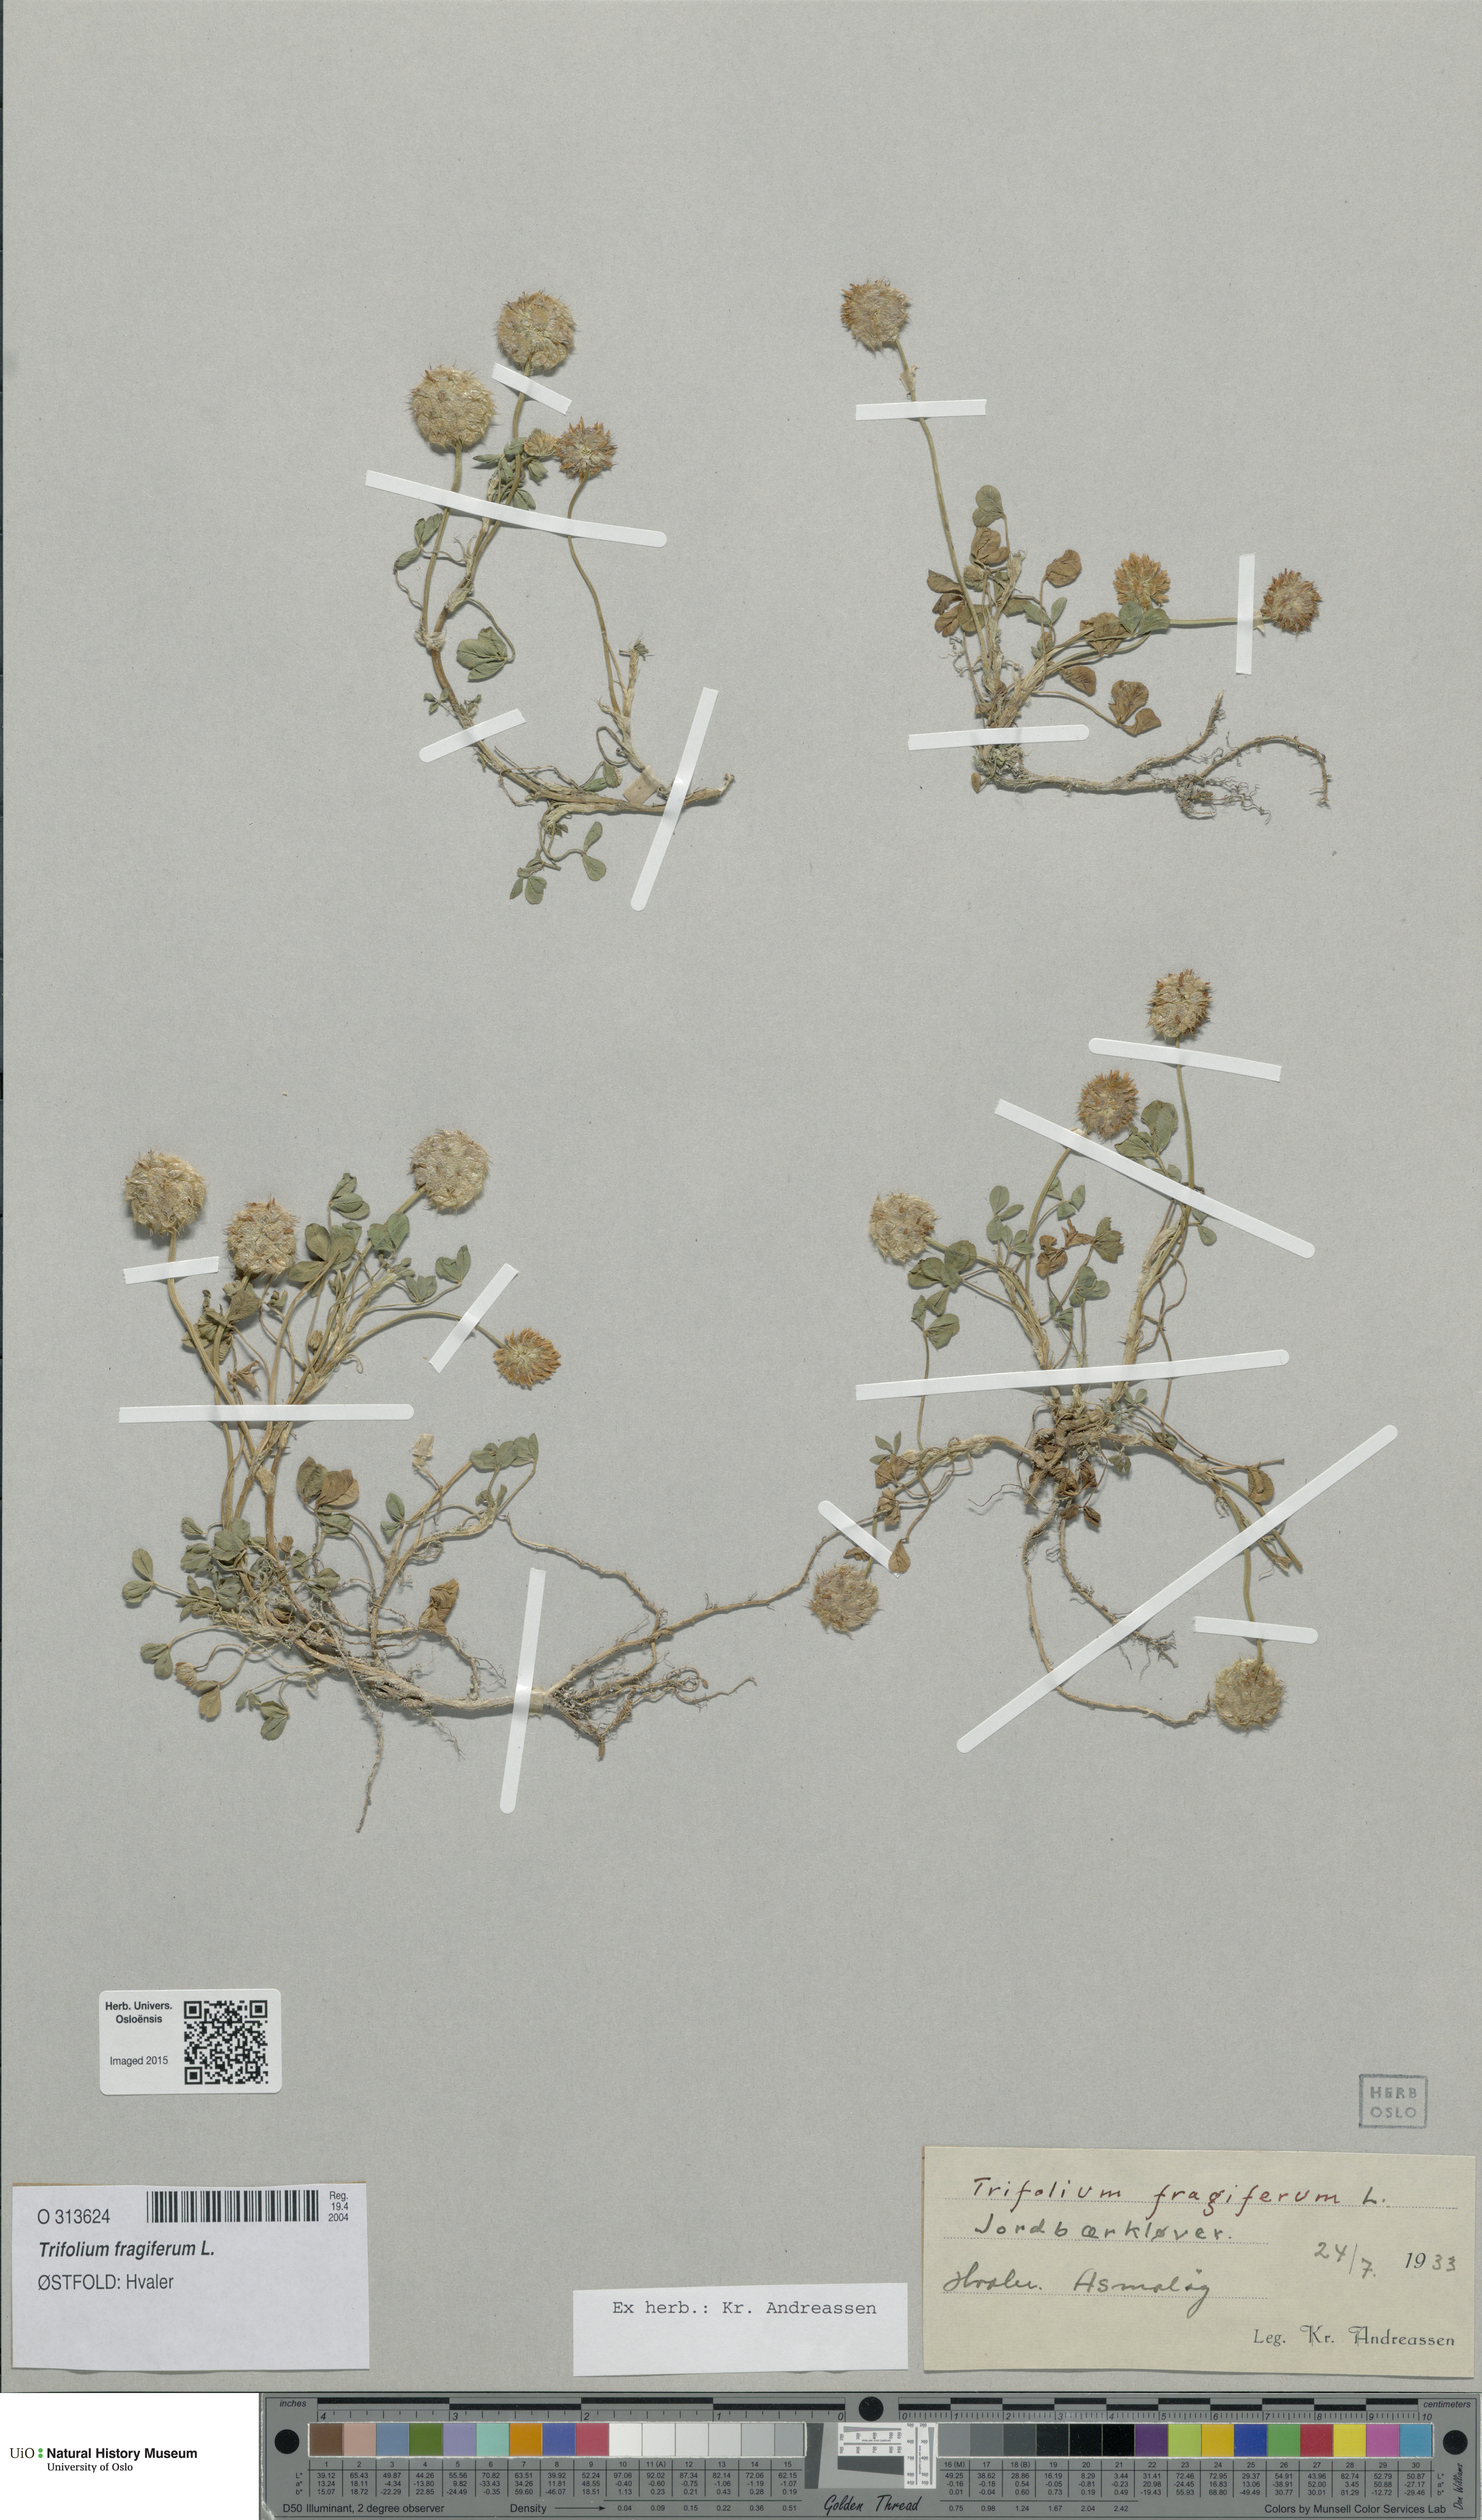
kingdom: Plantae
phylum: Tracheophyta
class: Magnoliopsida
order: Fabales
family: Fabaceae
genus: Trifolium
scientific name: Trifolium fragiferum
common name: Strawberry clover
